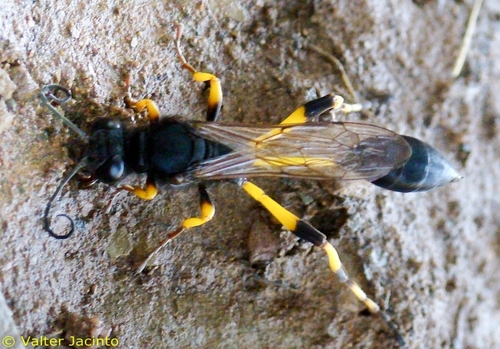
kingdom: Animalia
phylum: Arthropoda
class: Insecta
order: Hymenoptera
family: Sphecidae
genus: Sceliphron
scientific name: Sceliphron spirifex
